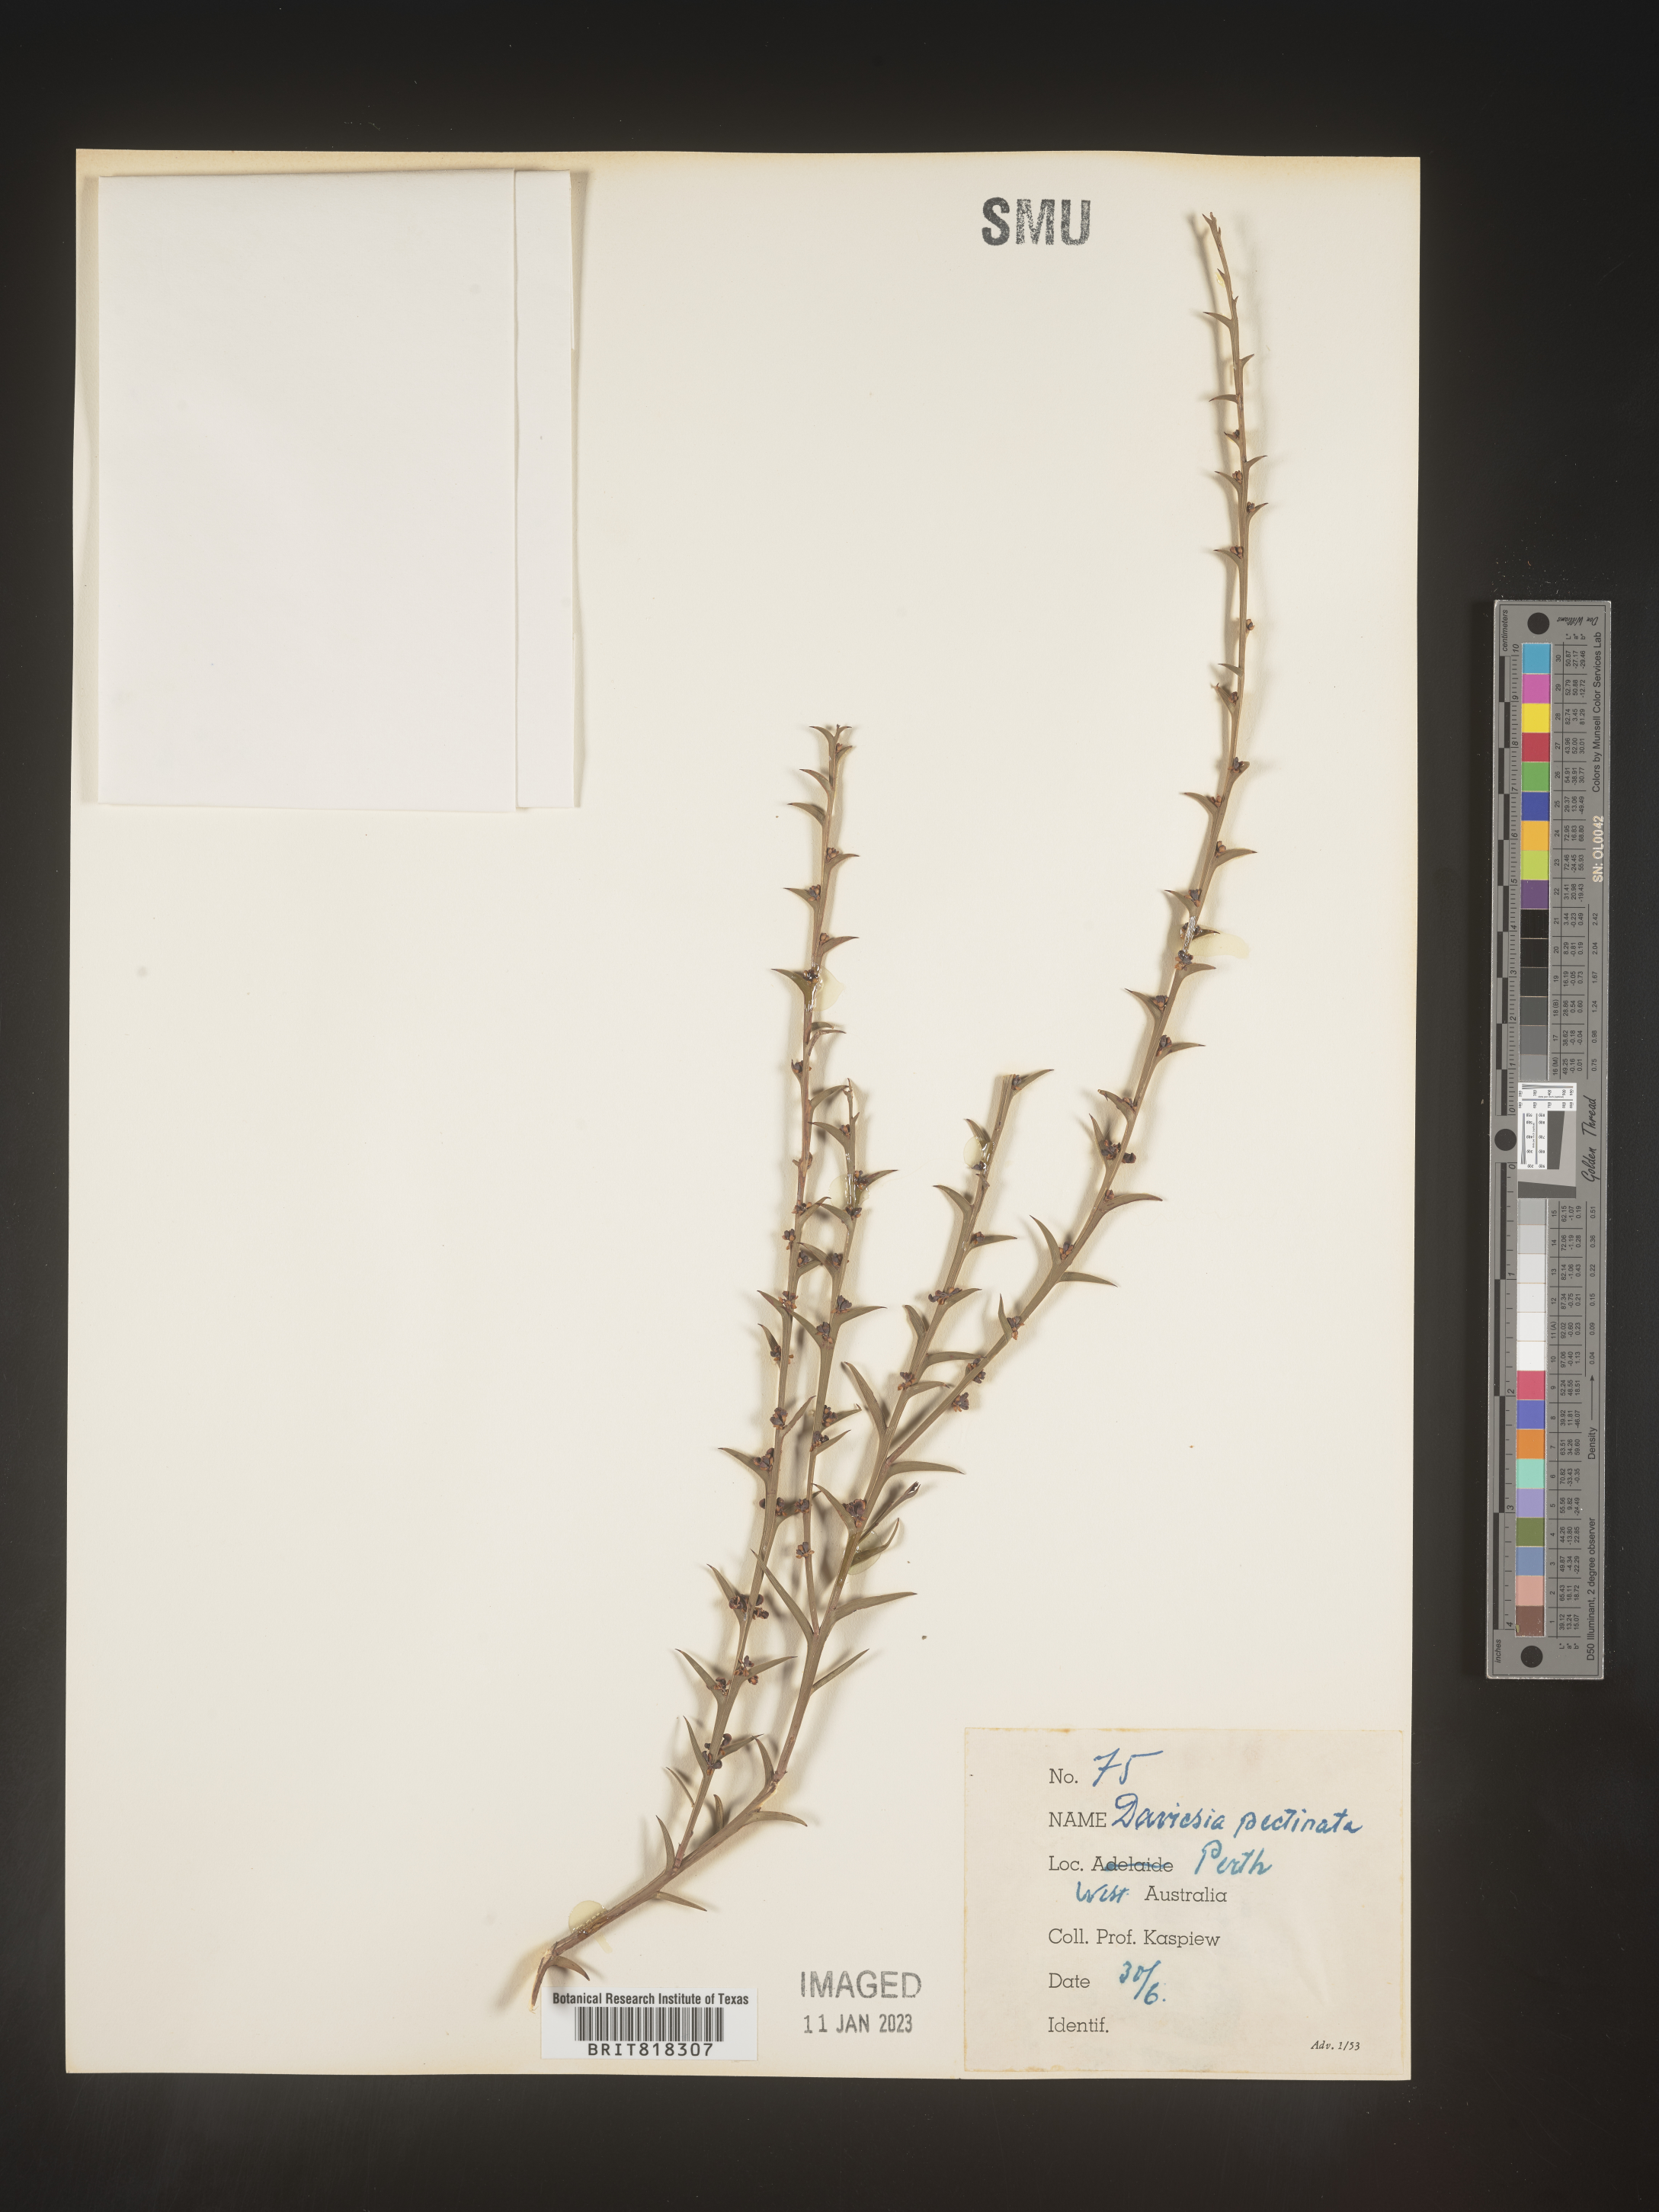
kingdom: Plantae
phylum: Tracheophyta
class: Magnoliopsida
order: Fabales
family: Fabaceae
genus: Daviesia
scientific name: Daviesia
